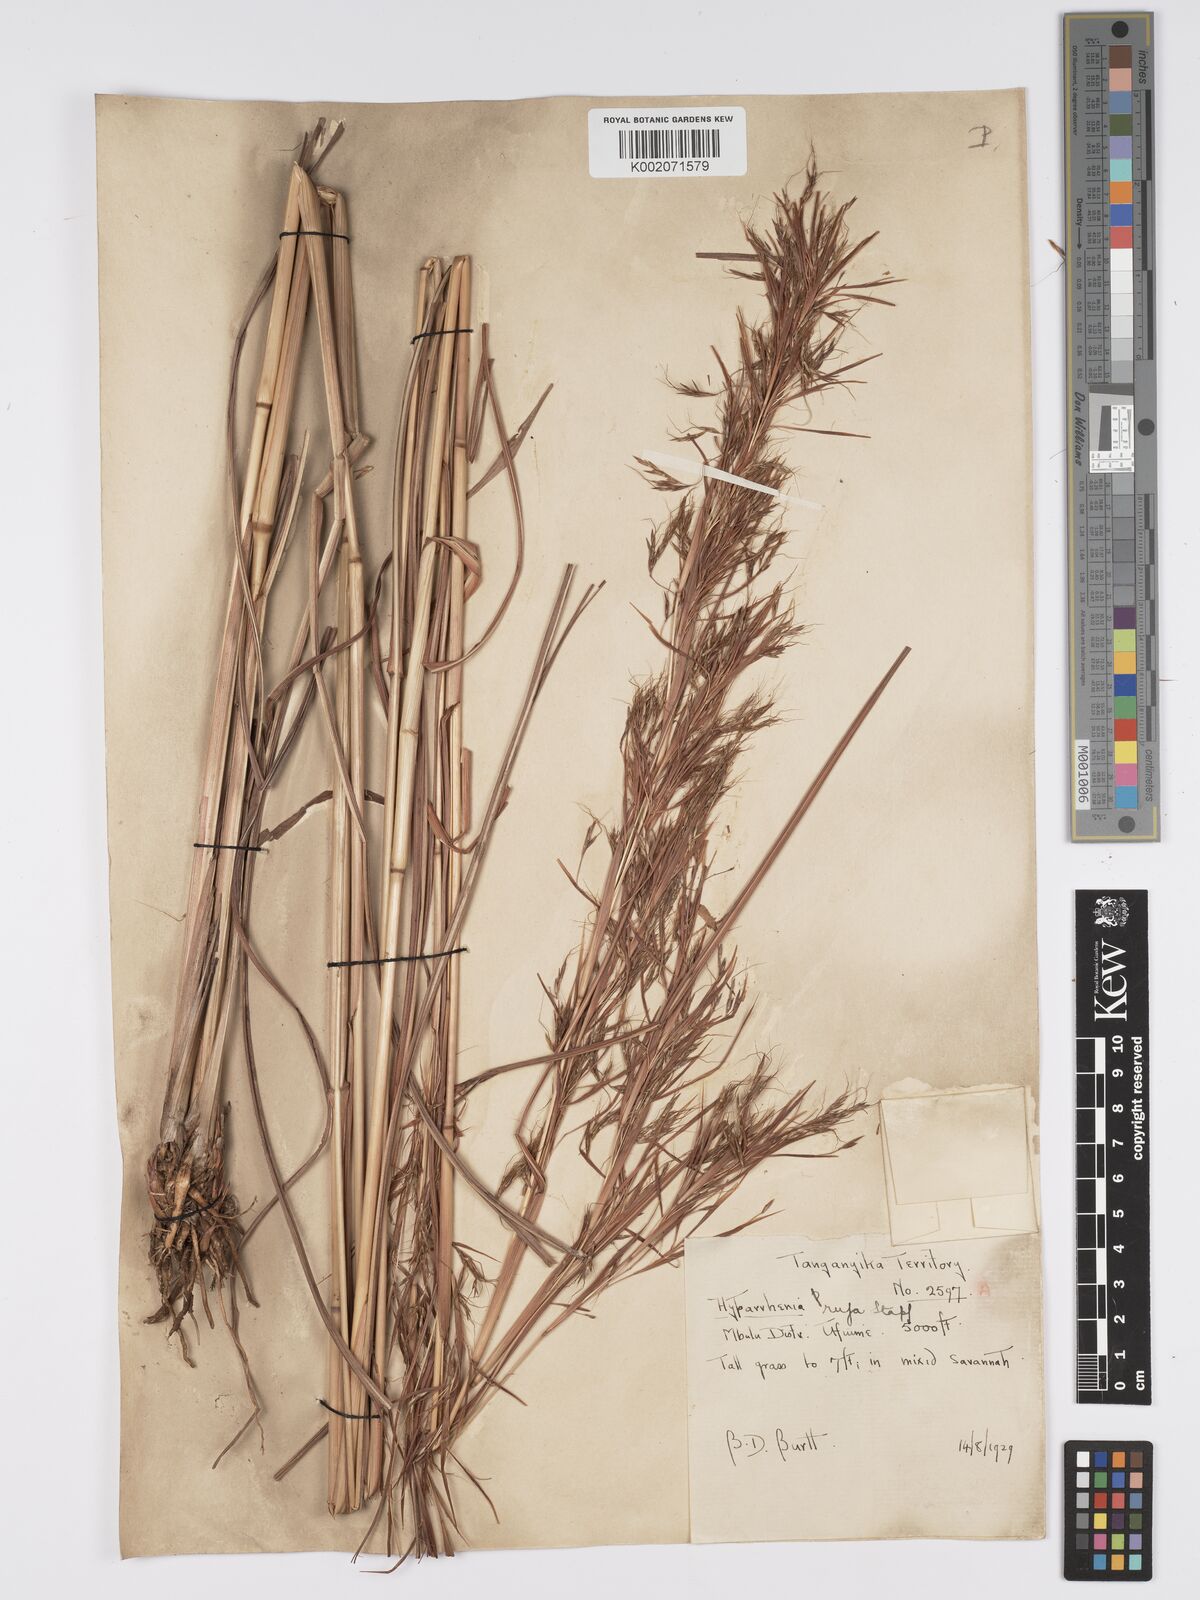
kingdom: Plantae
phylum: Tracheophyta
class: Liliopsida
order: Poales
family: Poaceae
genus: Hyparrhenia
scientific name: Hyparrhenia rufa
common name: Jaraguagrass
